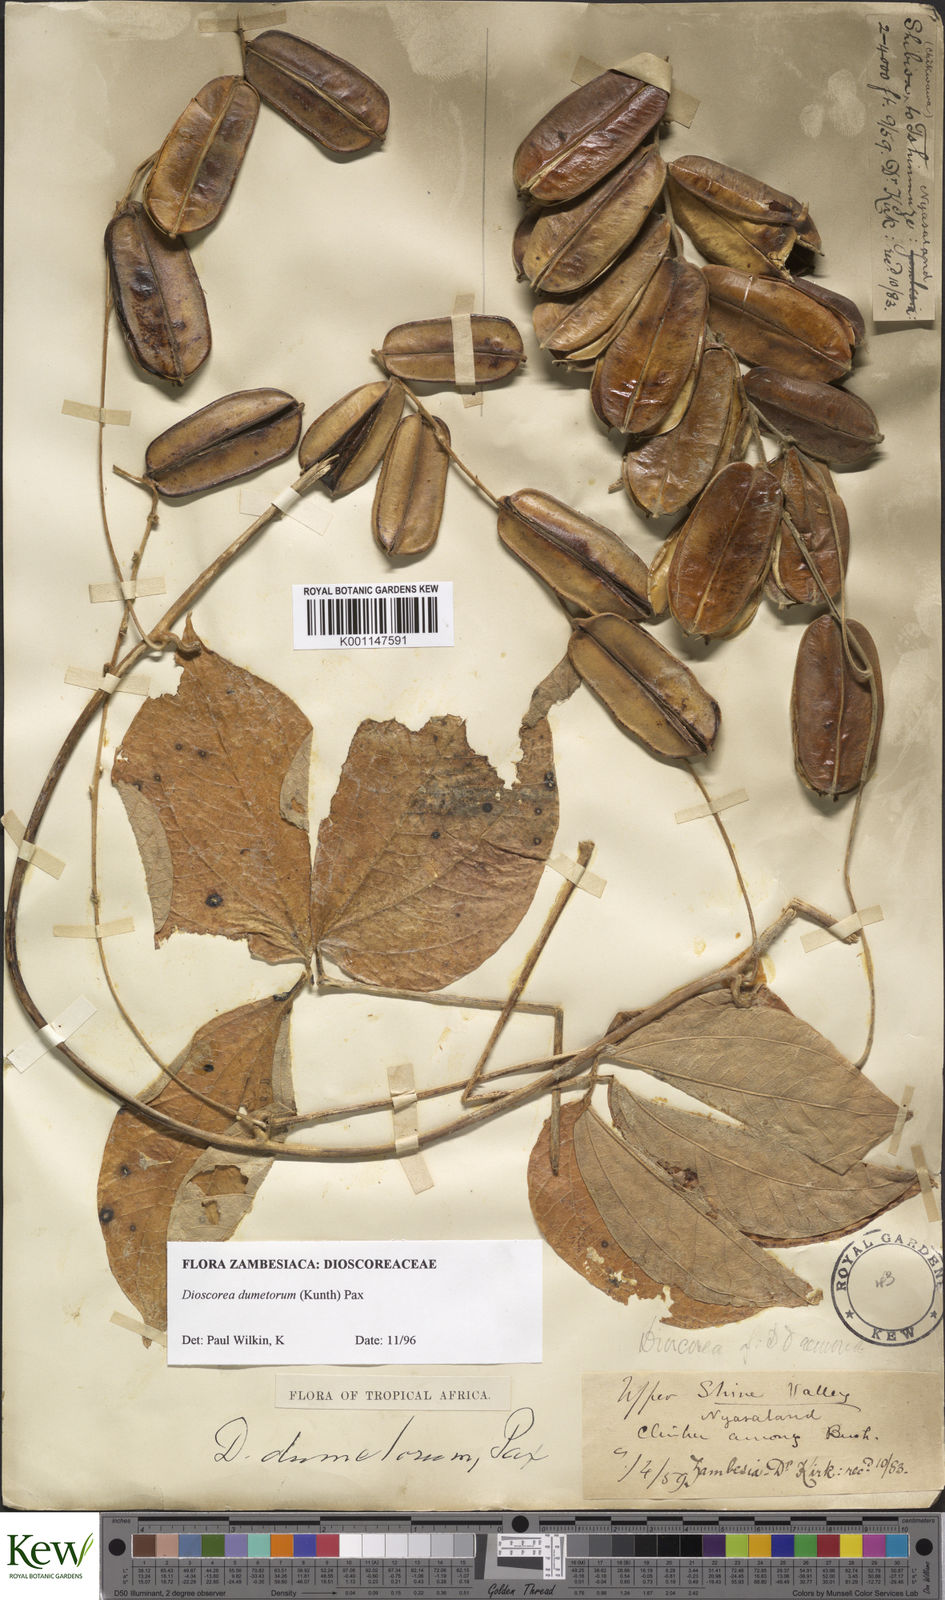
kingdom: Plantae
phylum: Tracheophyta
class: Liliopsida
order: Dioscoreales
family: Dioscoreaceae
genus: Dioscorea
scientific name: Dioscorea dumetorum
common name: African bitter yam
